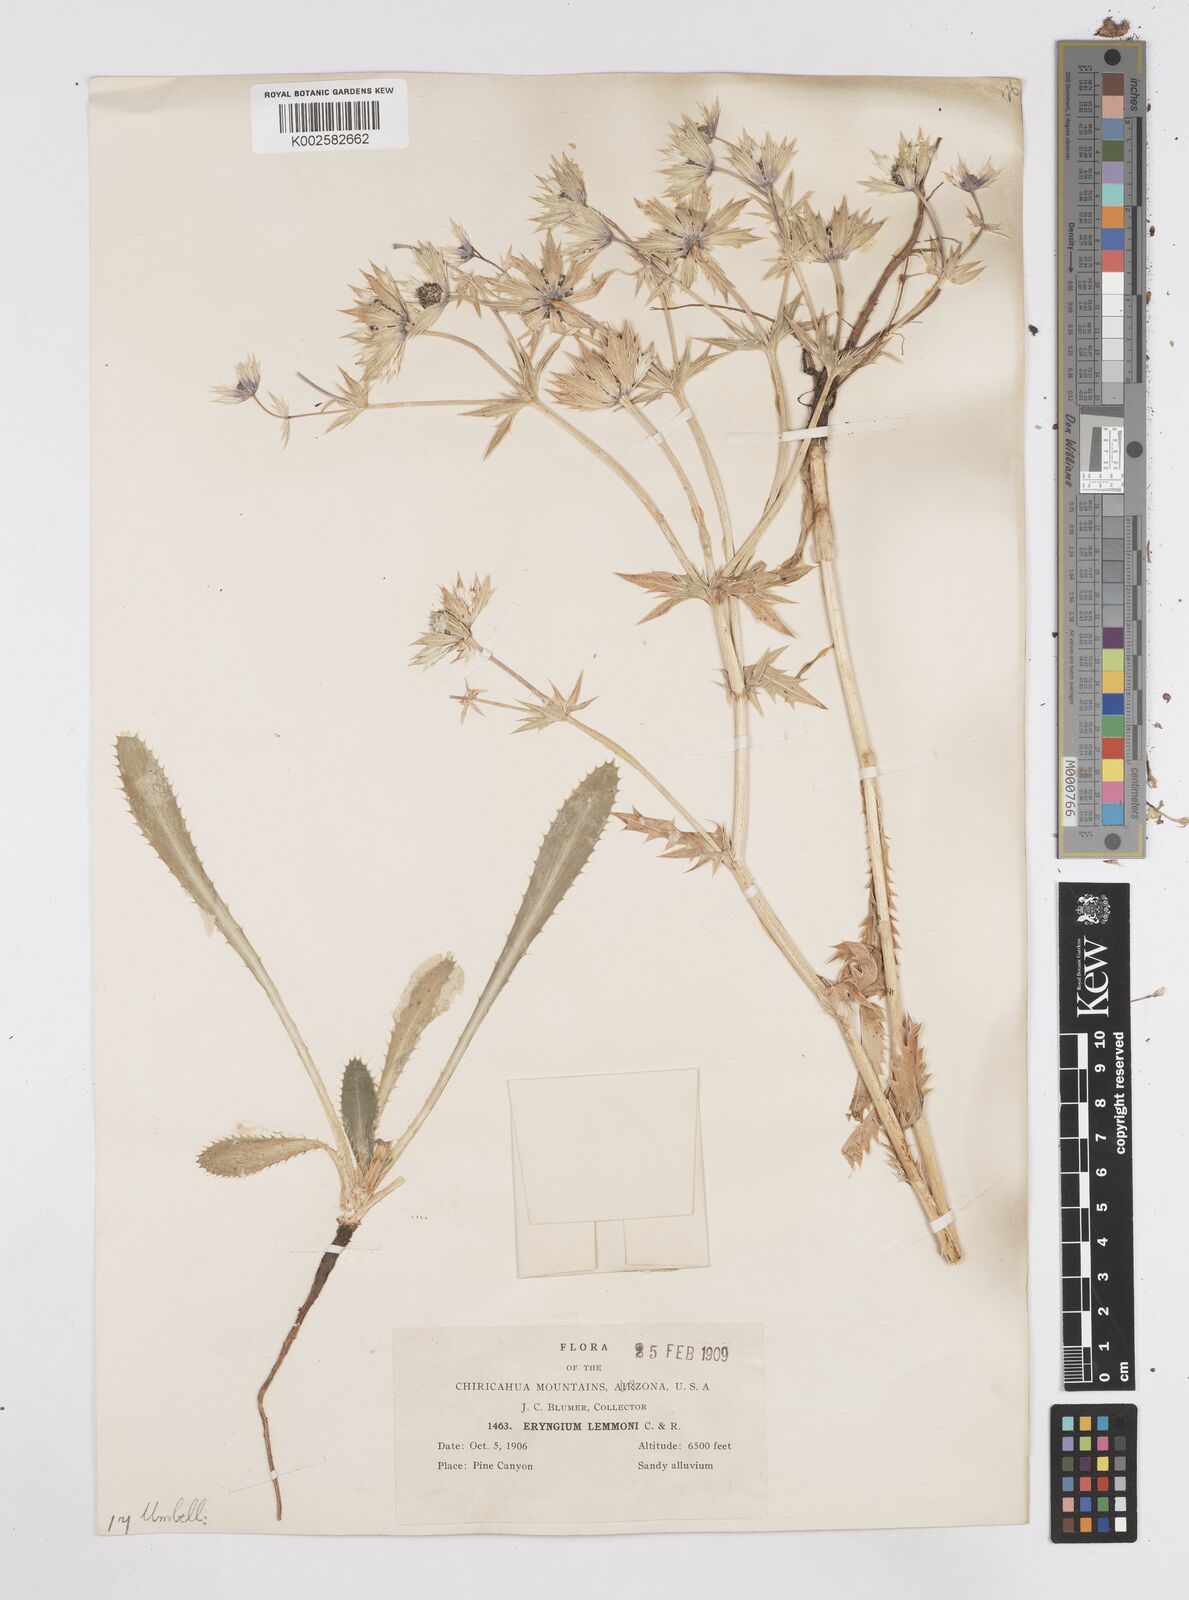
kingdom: Plantae
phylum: Tracheophyta
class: Magnoliopsida
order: Apiales
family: Apiaceae
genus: Eryngium
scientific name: Eryngium lemmonii
